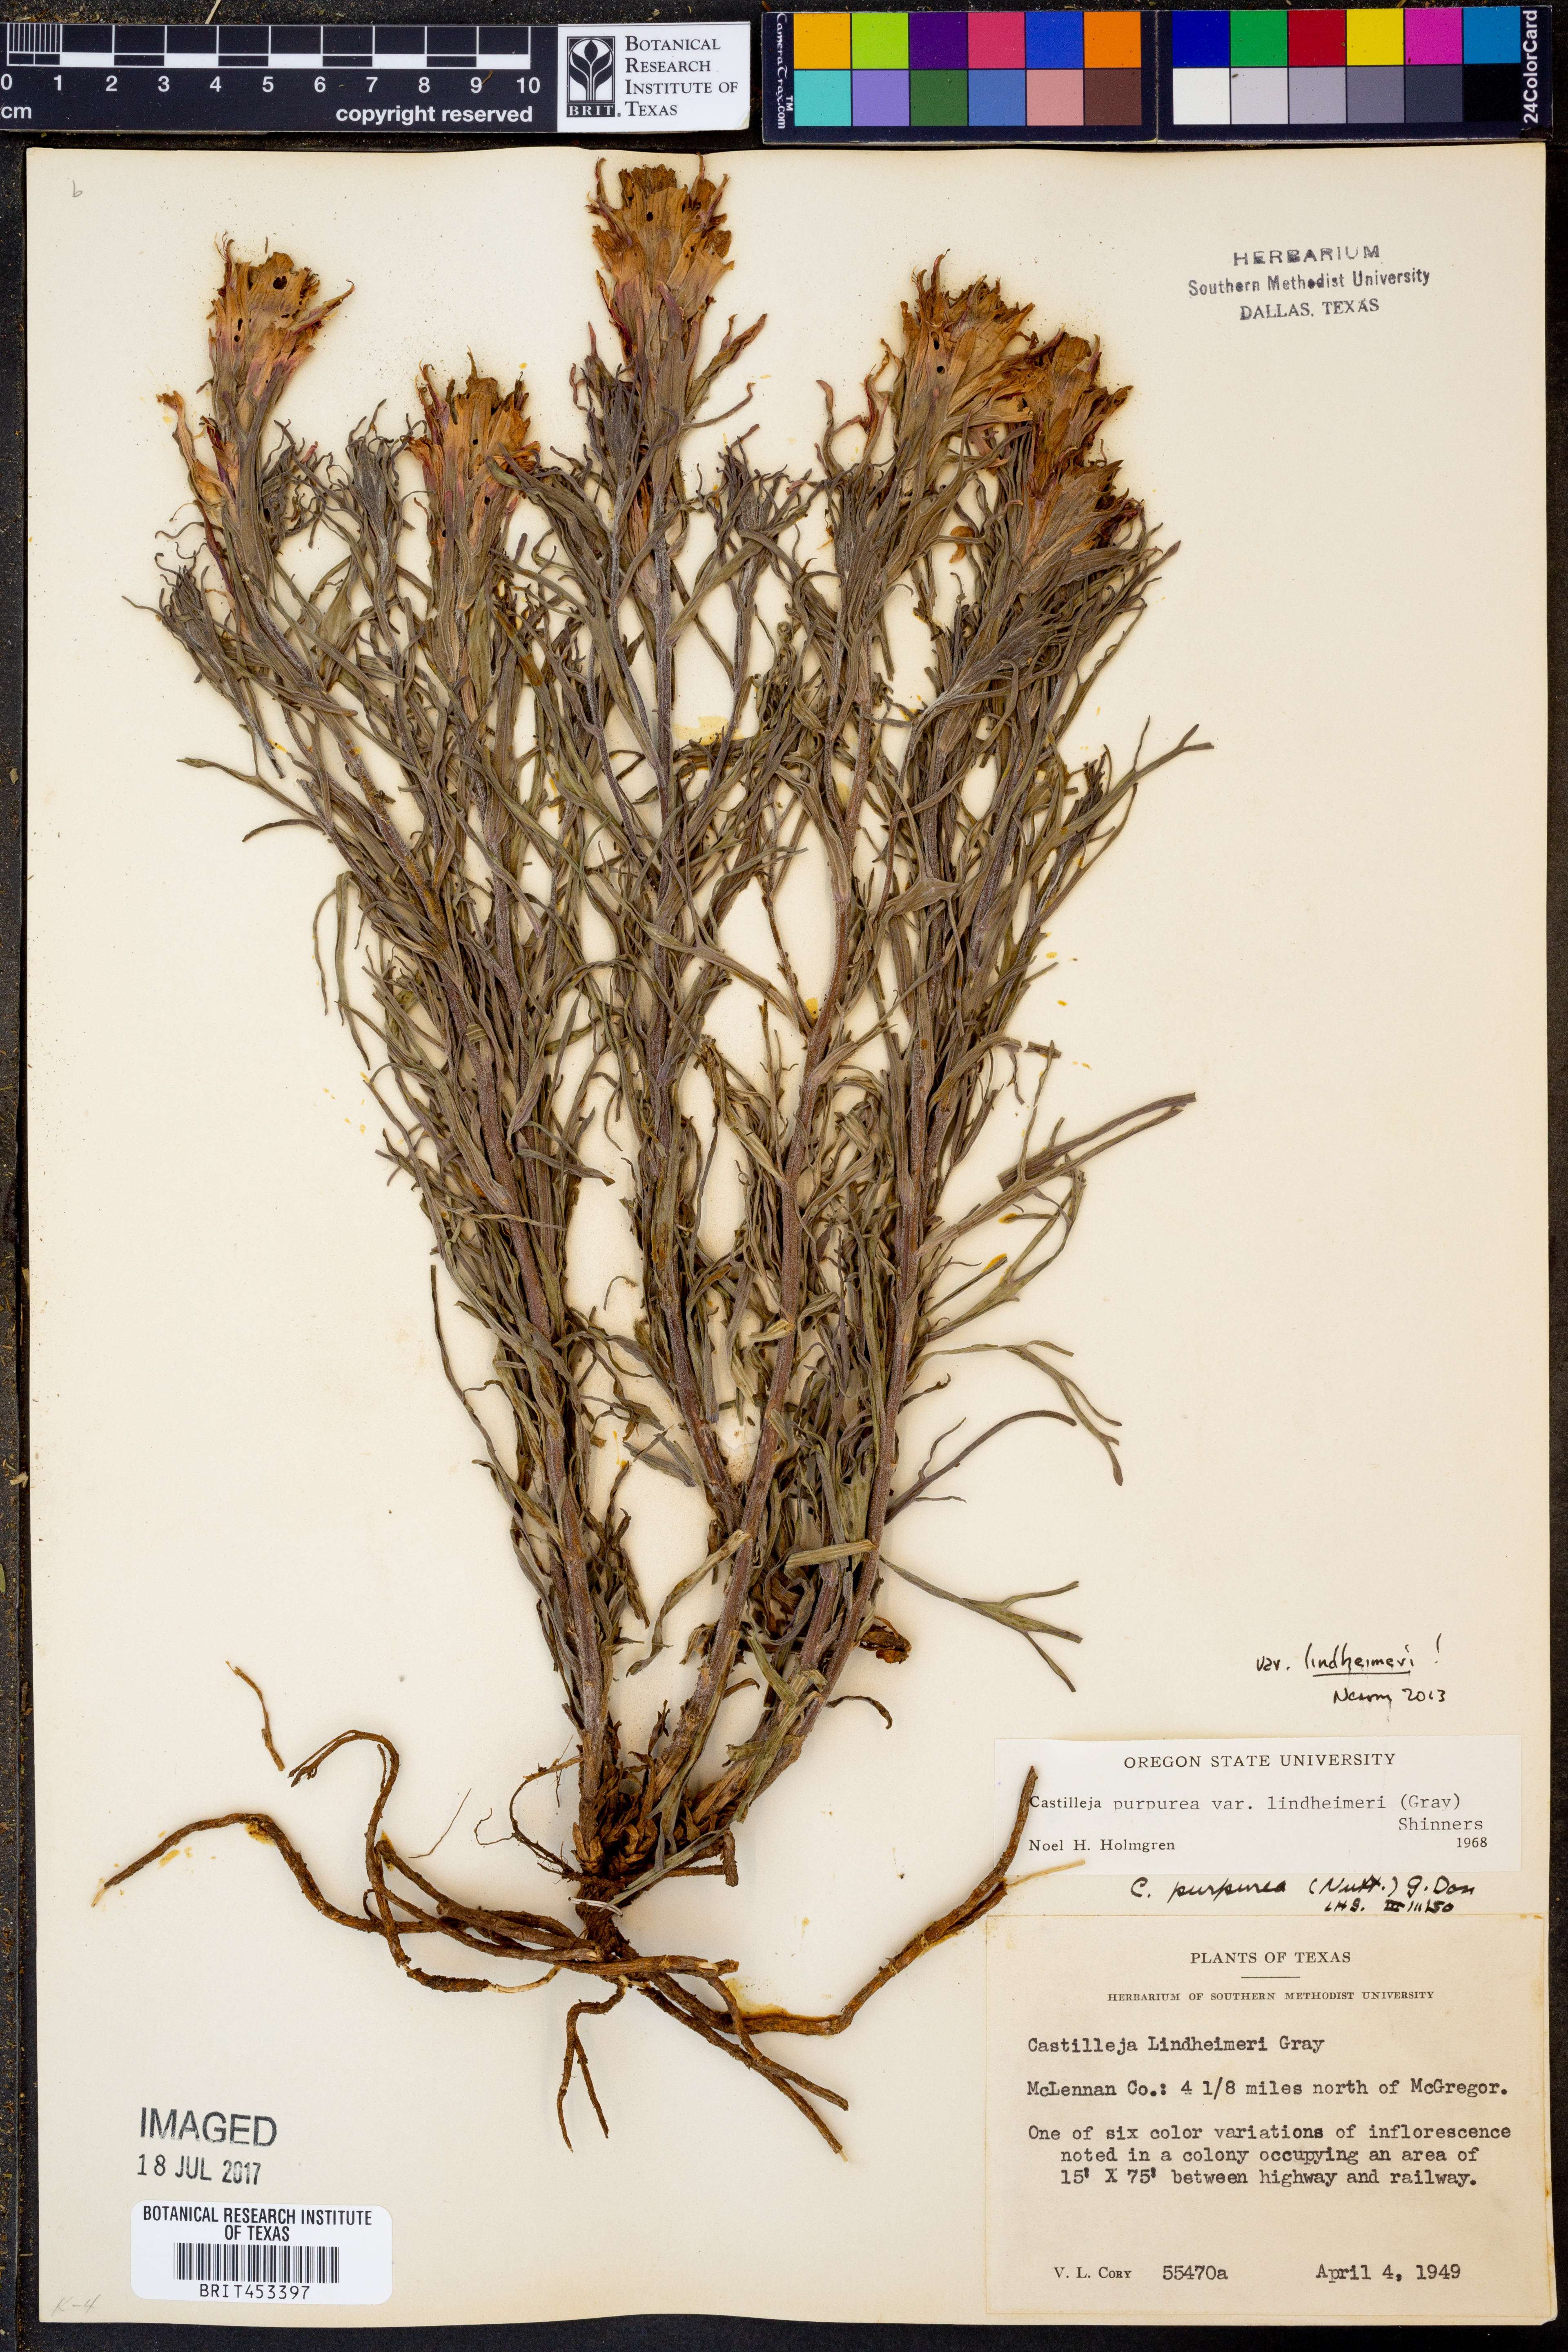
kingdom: Plantae
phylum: Tracheophyta
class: Magnoliopsida
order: Lamiales
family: Orobanchaceae
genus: Castilleja
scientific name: Castilleja lindheimeri
